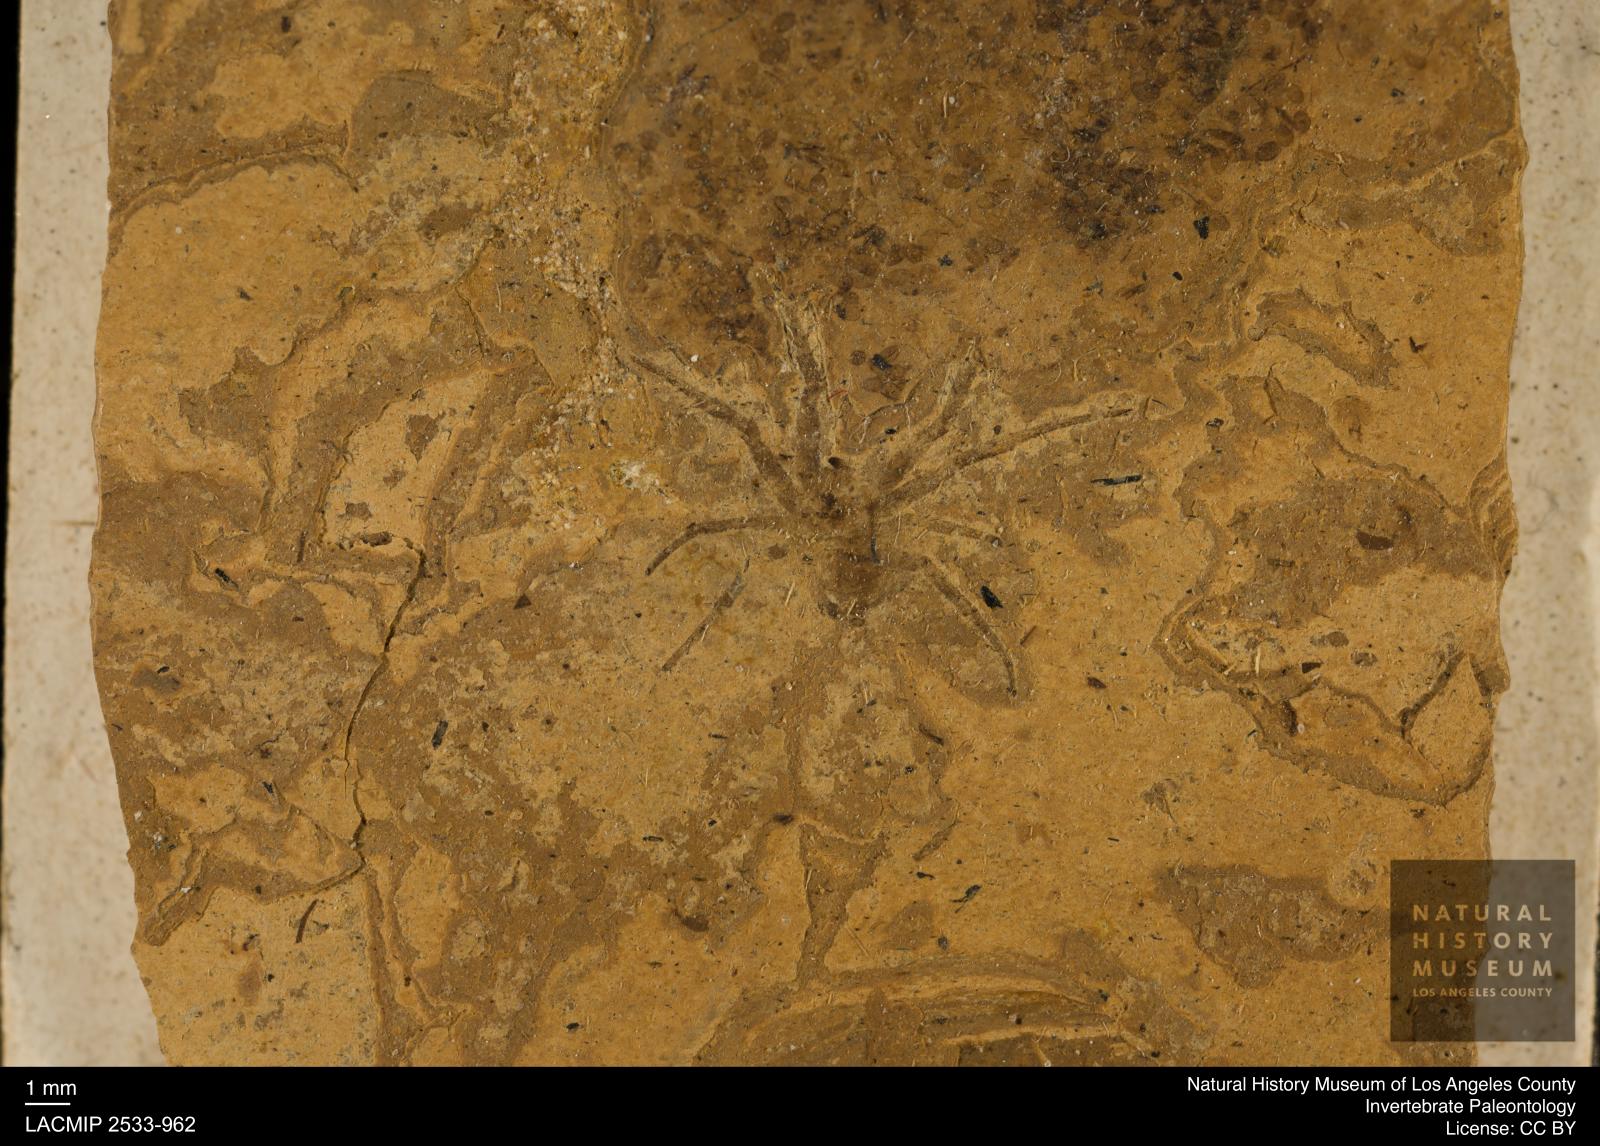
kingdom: Animalia
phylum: Arthropoda
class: Arachnida
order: Araneae
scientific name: Araneae
